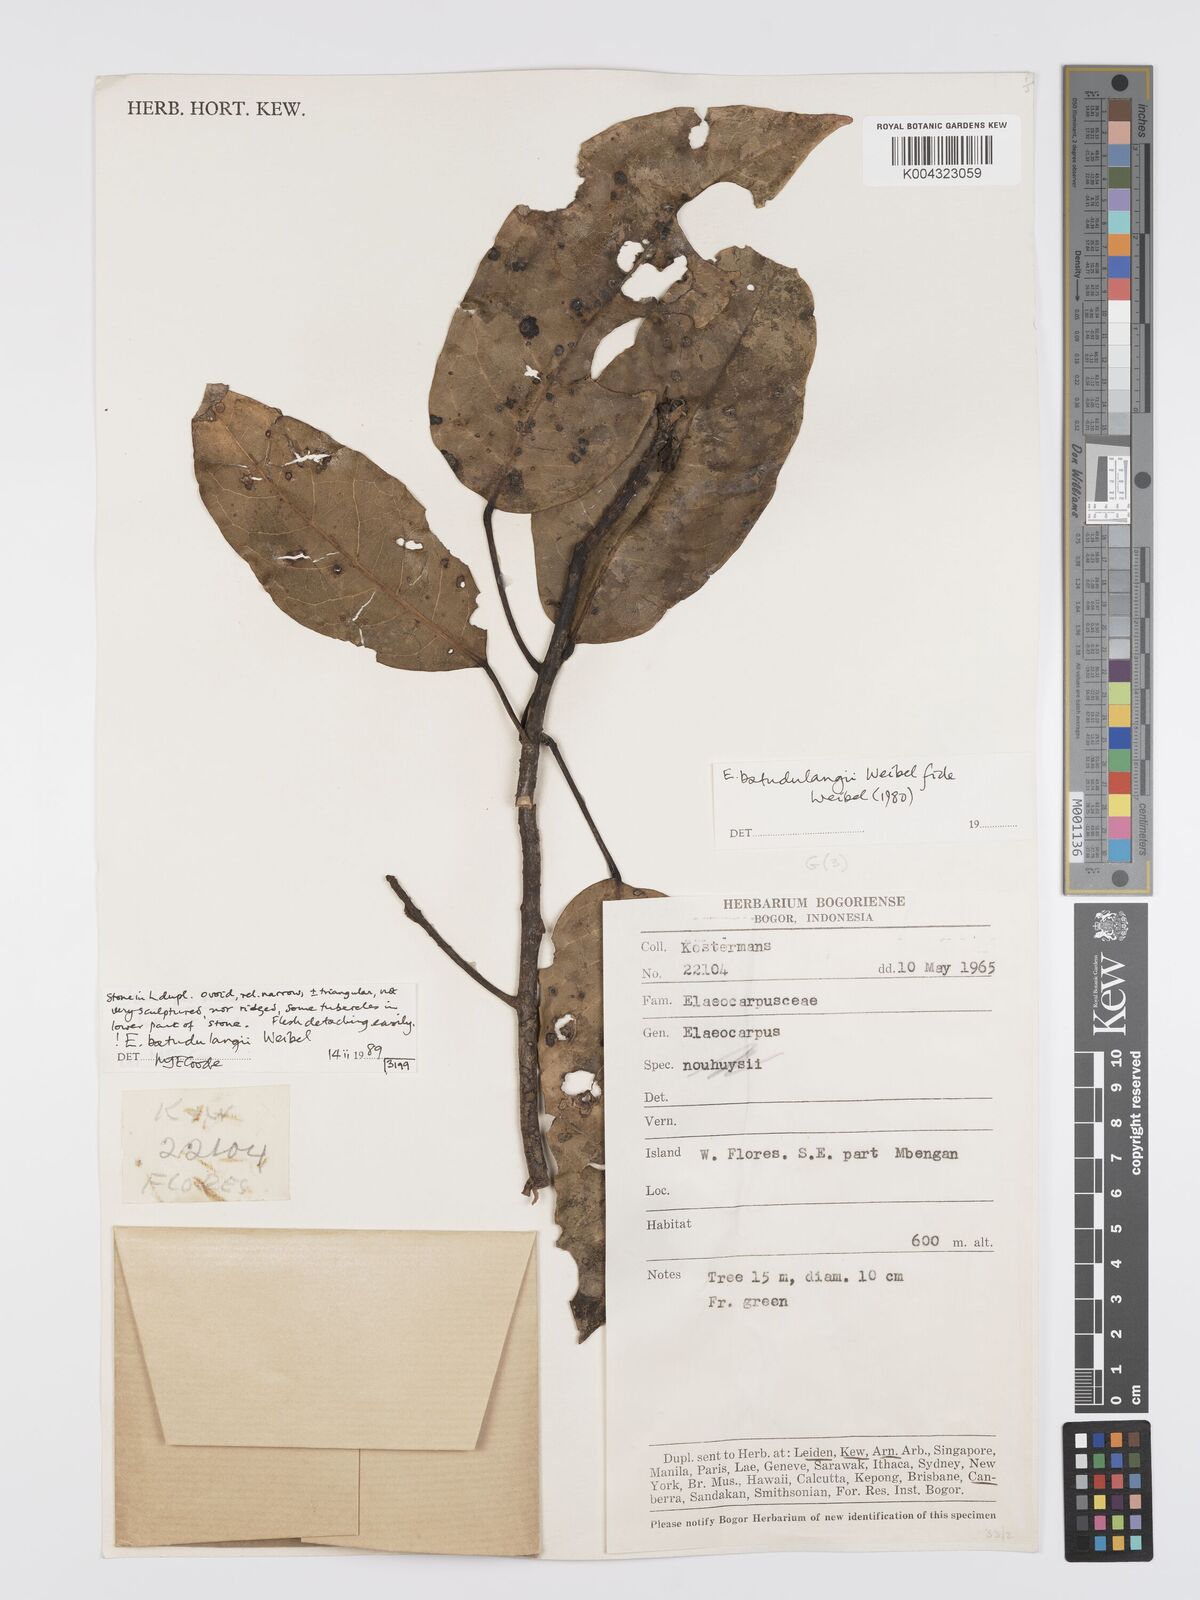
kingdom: Plantae
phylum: Tracheophyta
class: Magnoliopsida
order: Oxalidales
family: Elaeocarpaceae
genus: Elaeocarpus
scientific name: Elaeocarpus batudulangii
